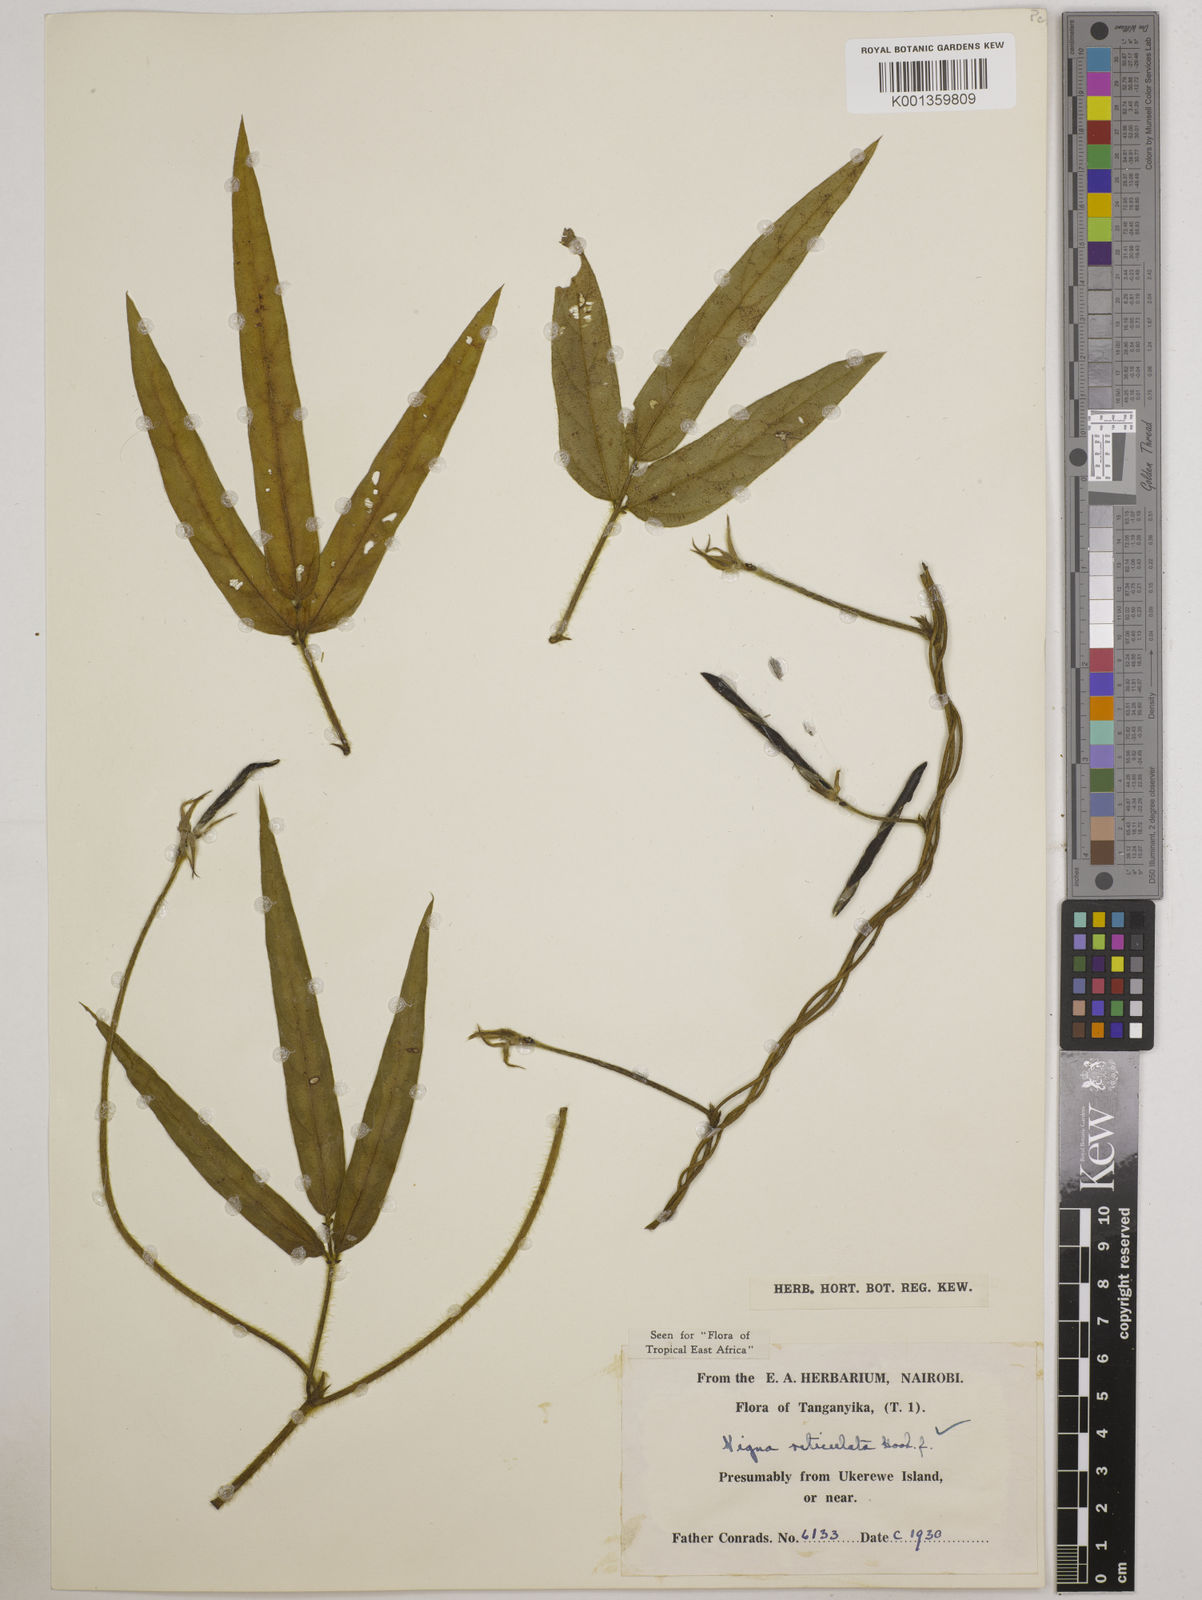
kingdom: Plantae
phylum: Tracheophyta
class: Magnoliopsida
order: Fabales
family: Fabaceae
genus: Vigna
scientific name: Vigna reticulata
